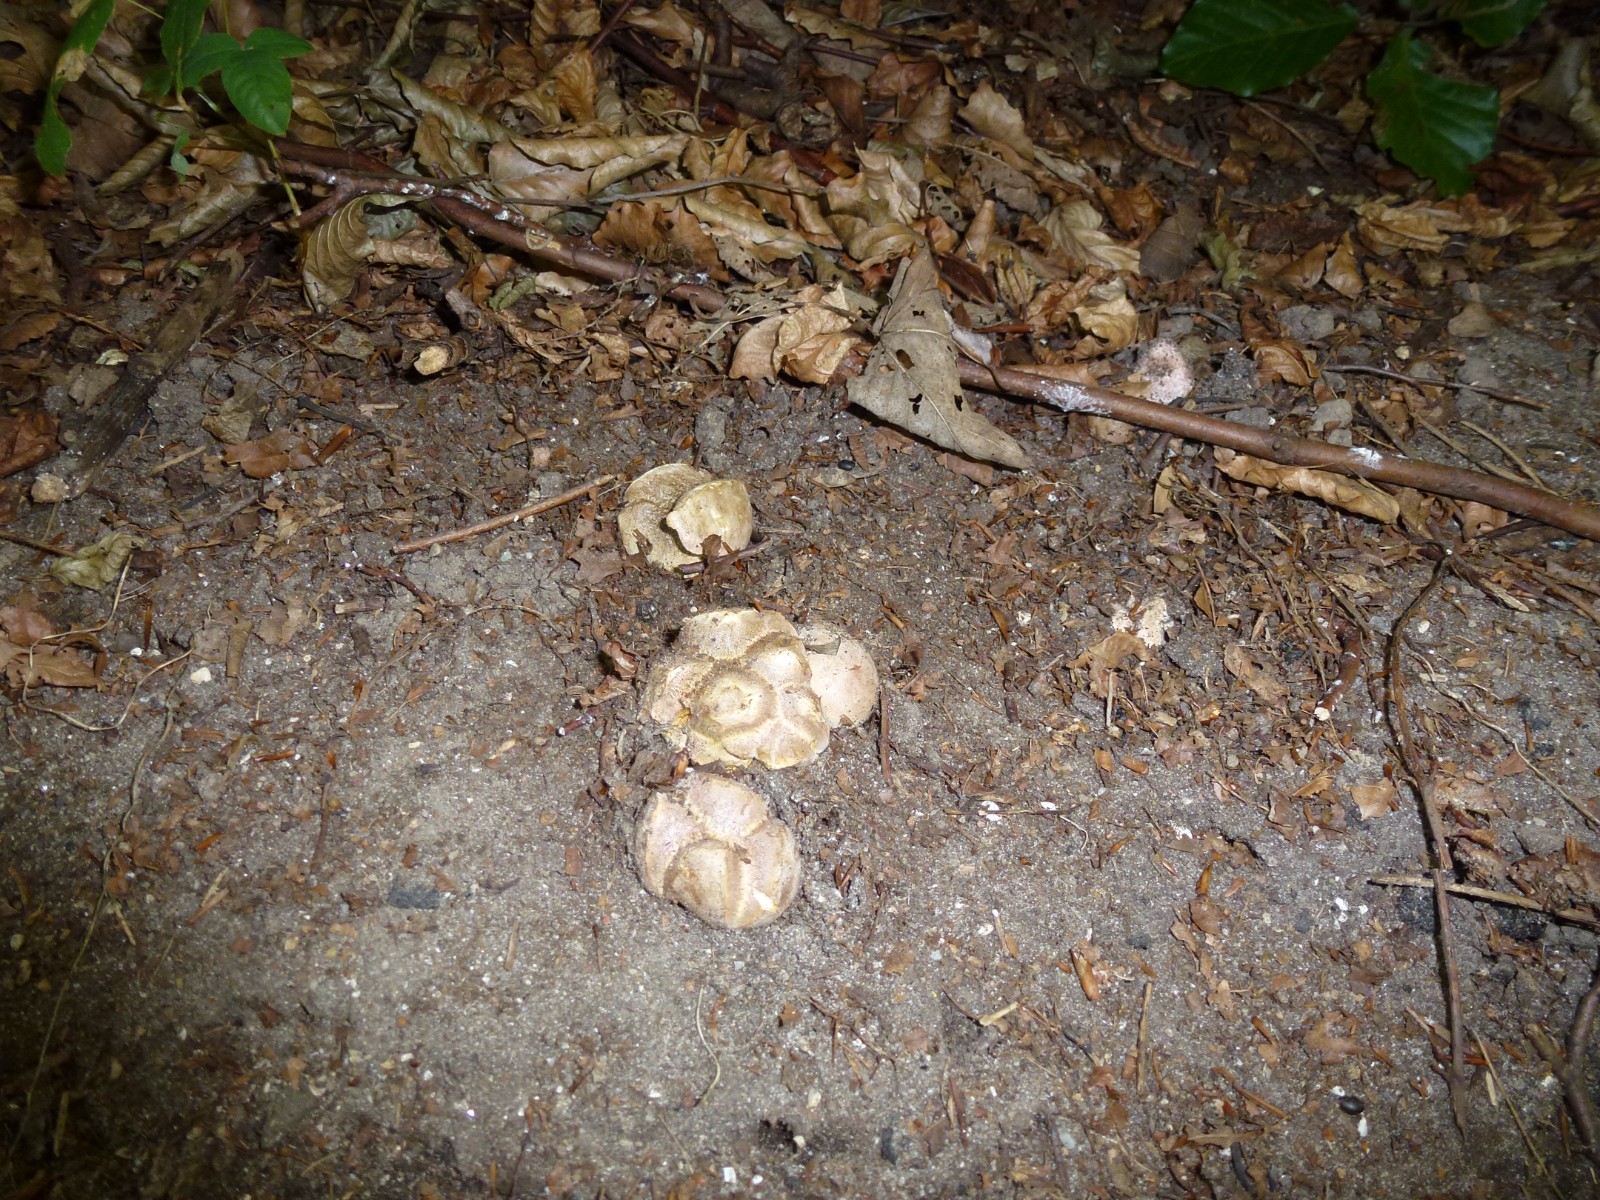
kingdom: Fungi
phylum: Basidiomycota
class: Agaricomycetes
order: Boletales
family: Sclerodermataceae
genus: Scleroderma
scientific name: Scleroderma bovista
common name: bovist-bruskbold
